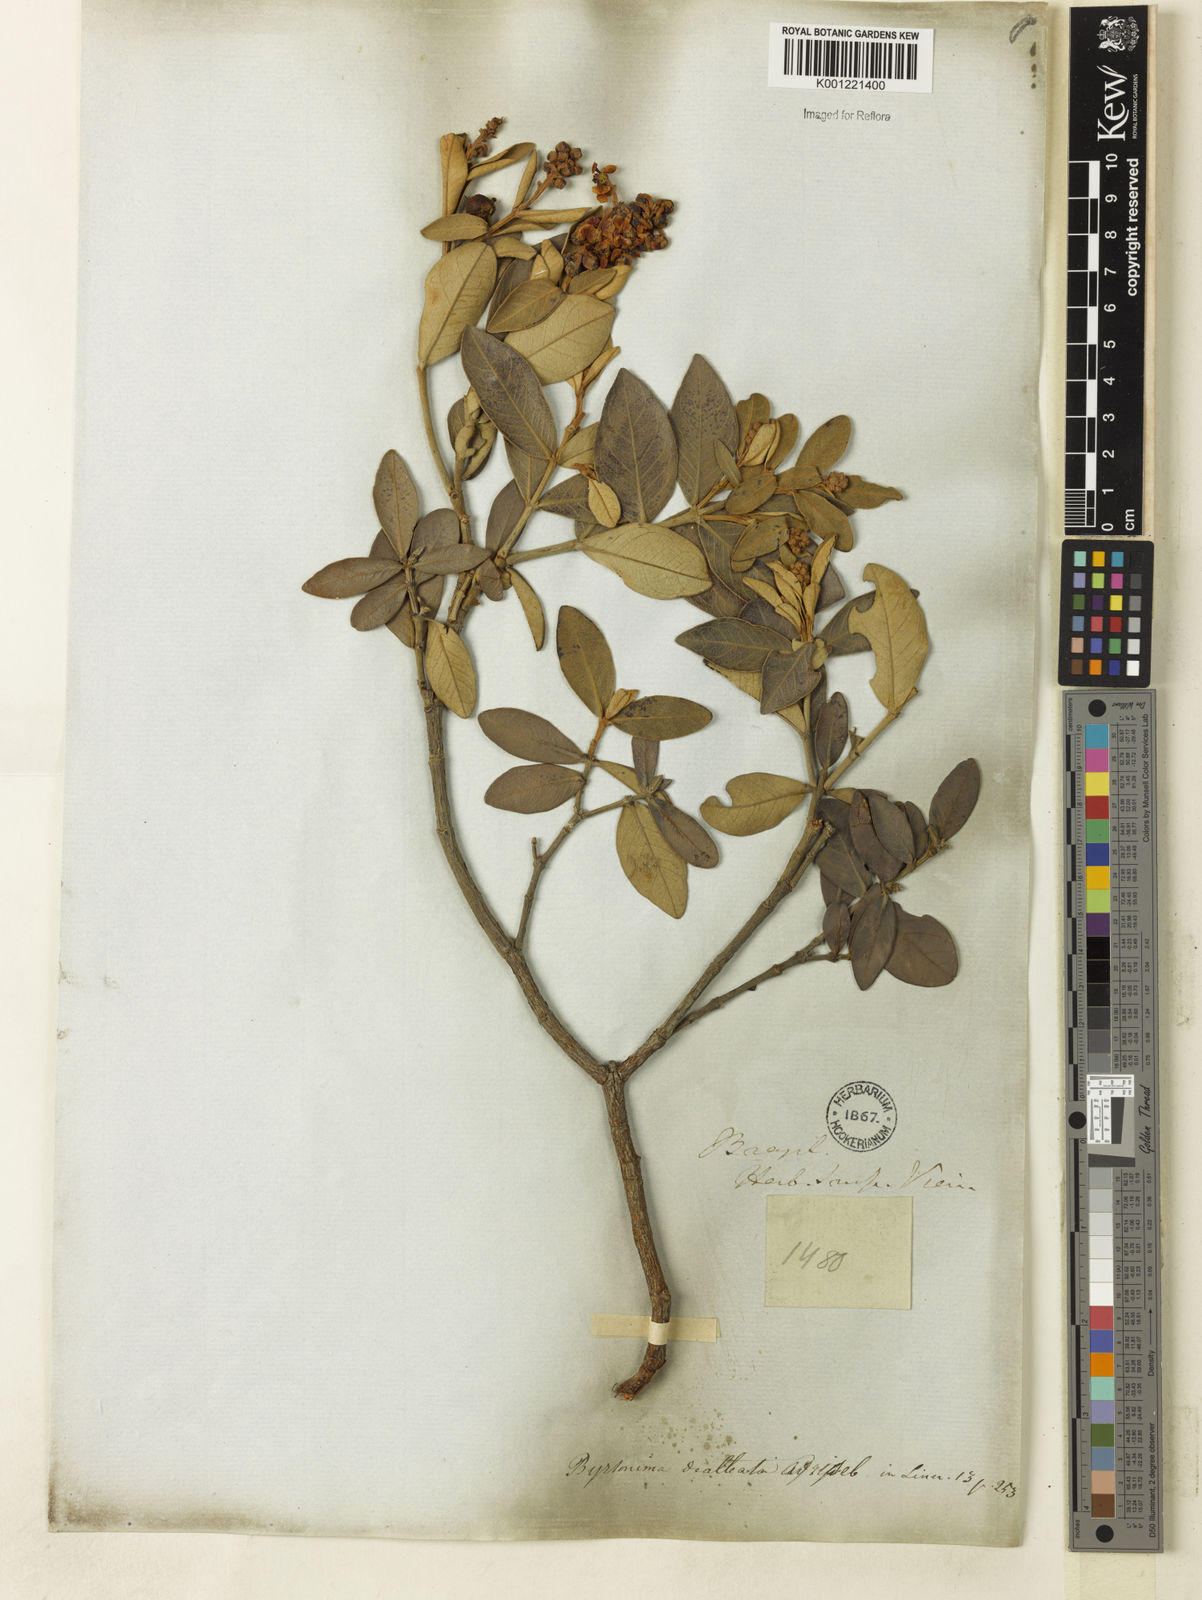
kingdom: Plantae
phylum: Tracheophyta
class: Magnoliopsida
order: Malpighiales
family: Malpighiaceae
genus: Byrsonima
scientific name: Byrsonima dealbata
